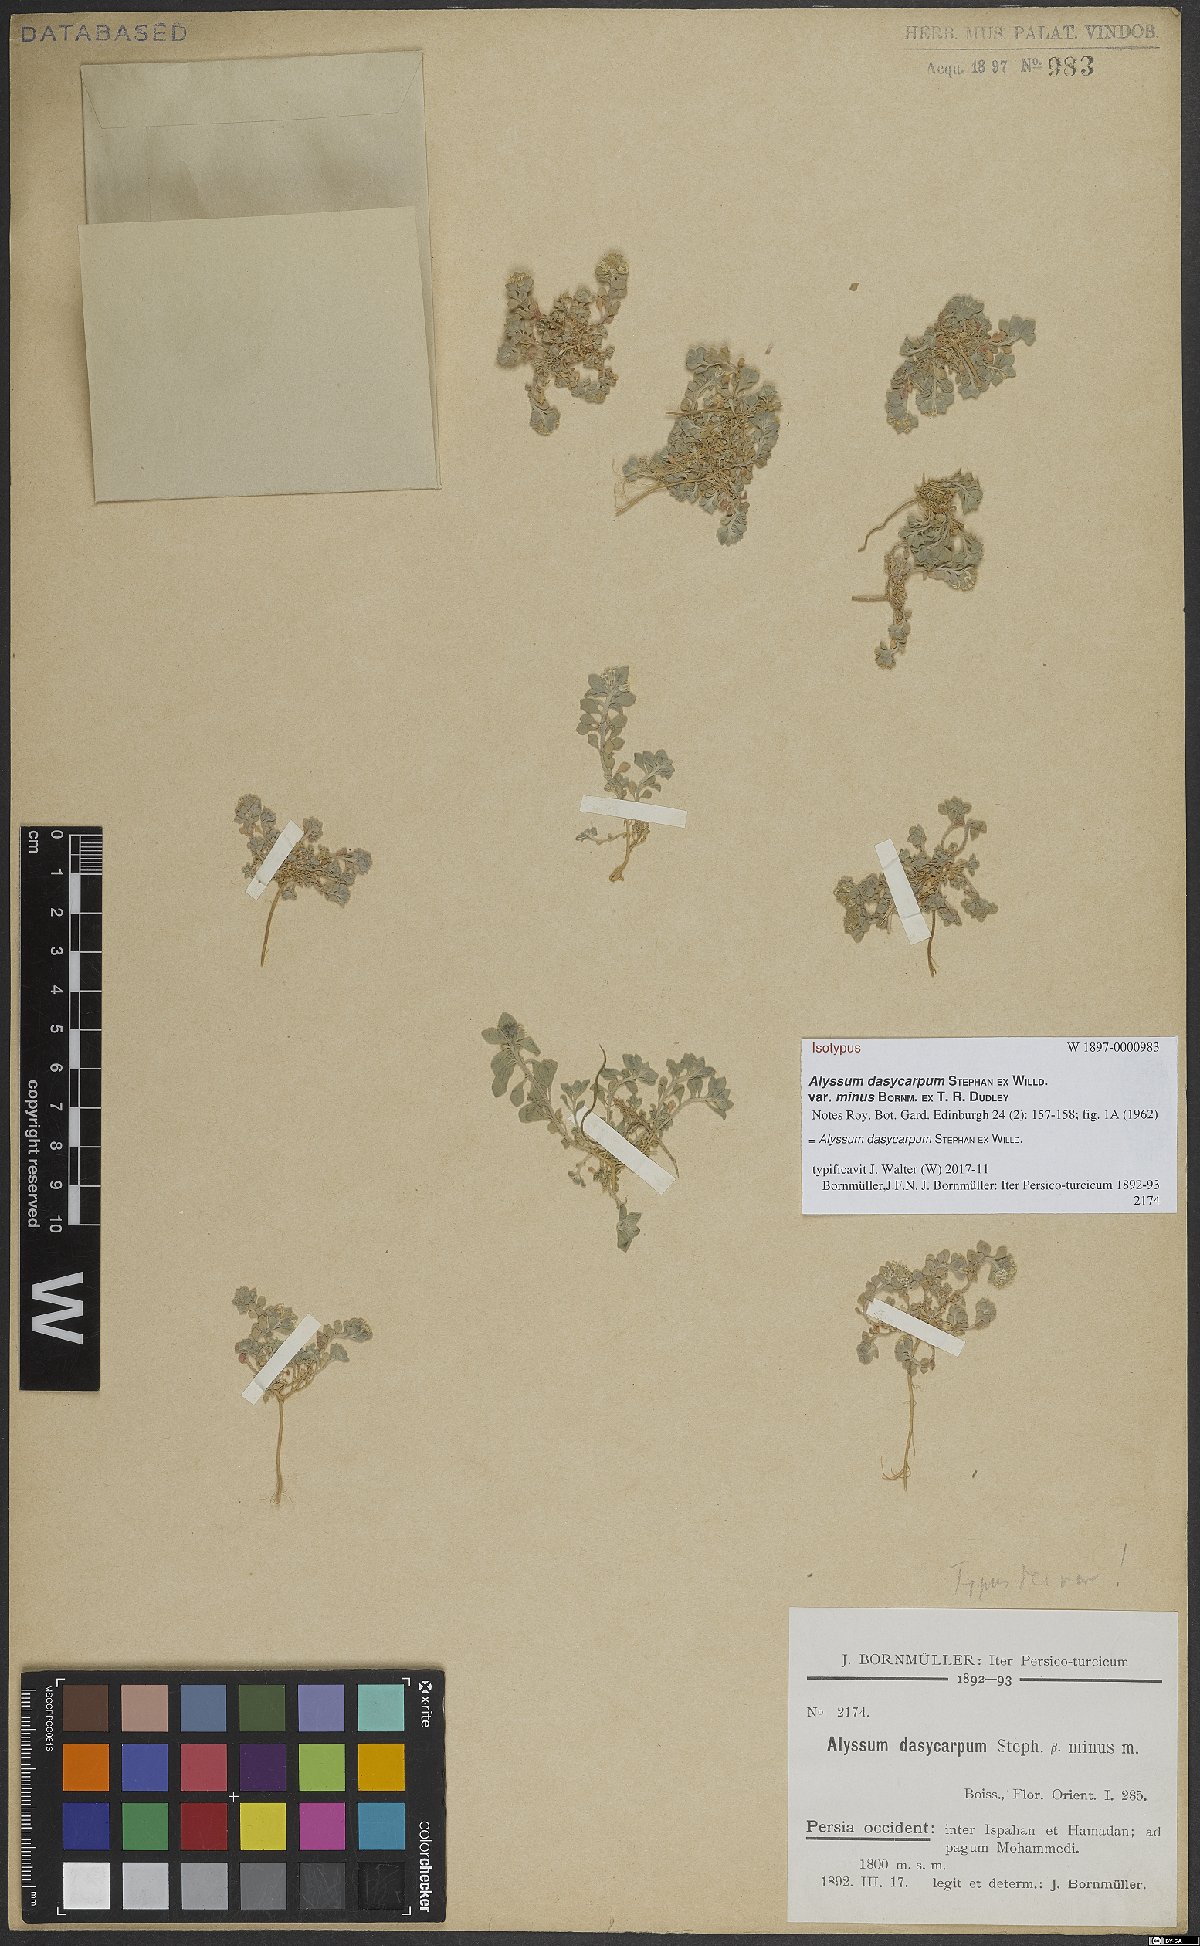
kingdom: Plantae
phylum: Tracheophyta
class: Magnoliopsida
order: Brassicales
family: Brassicaceae
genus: Alyssum
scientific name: Alyssum dasycarpum
